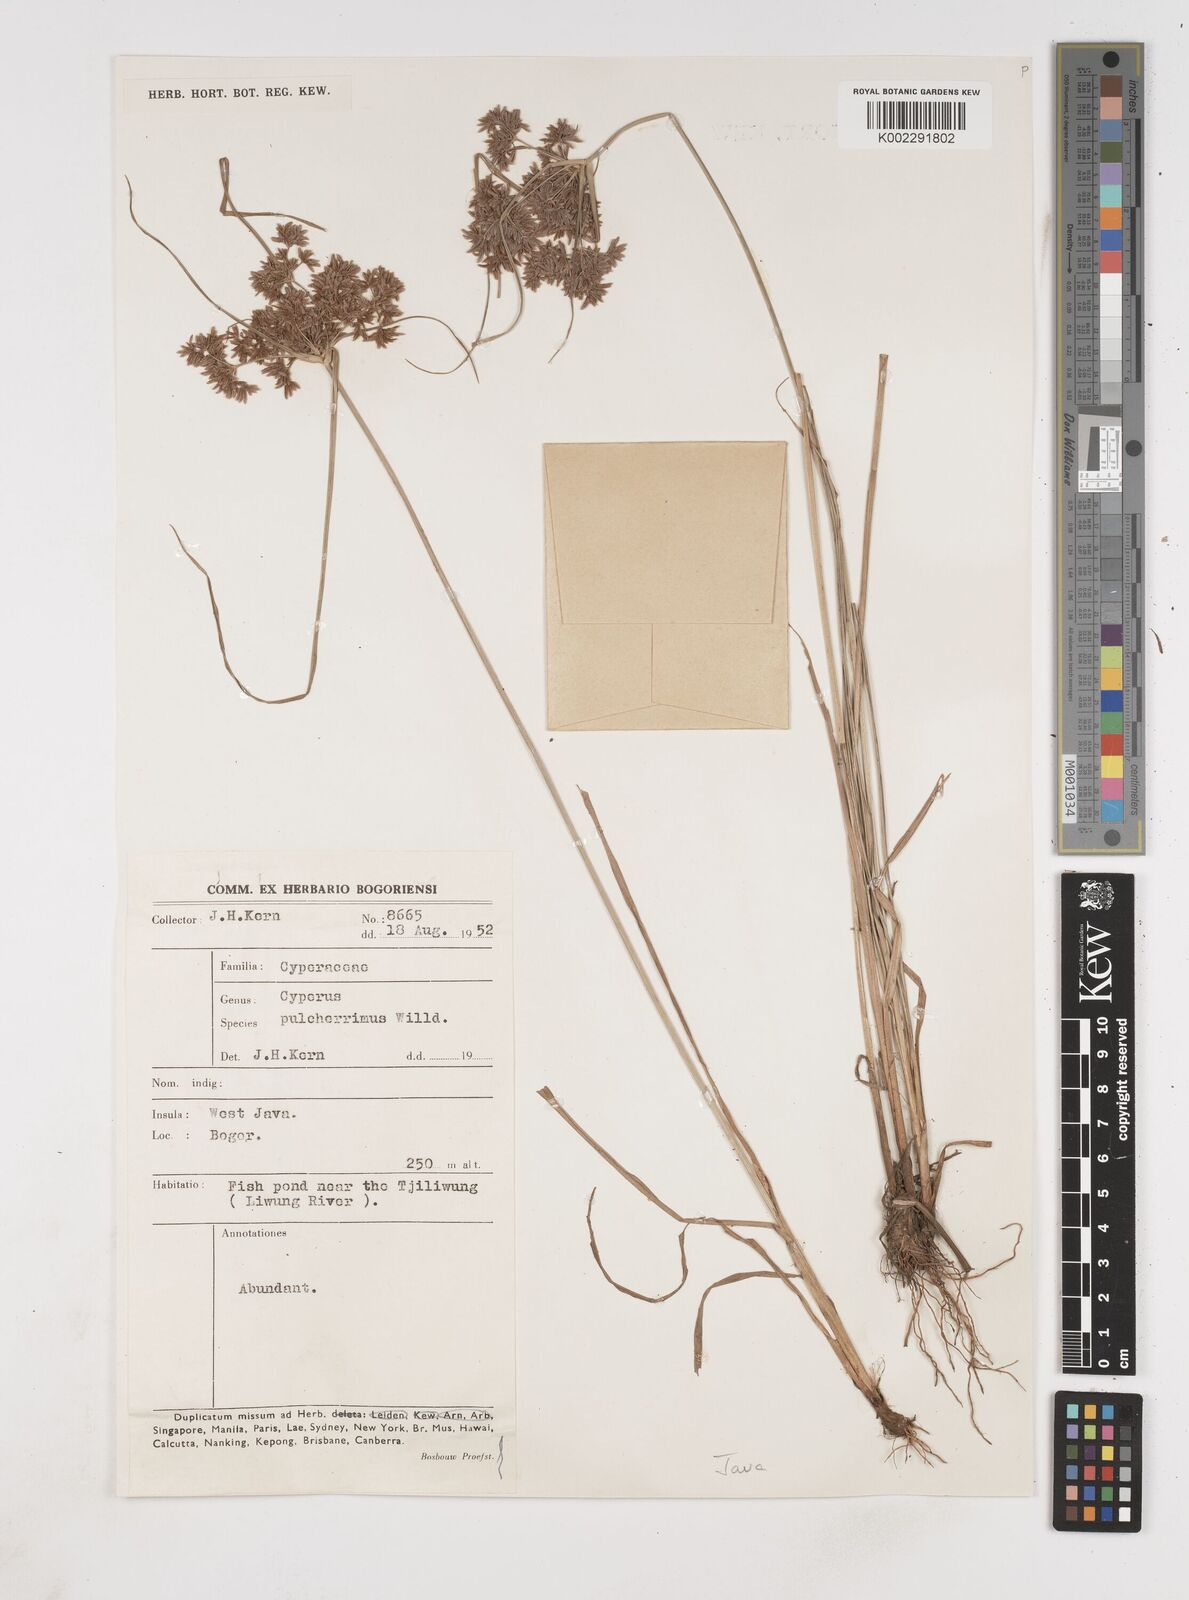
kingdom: Plantae
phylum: Tracheophyta
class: Liliopsida
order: Poales
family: Cyperaceae
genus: Cyperus
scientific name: Cyperus pulcherrimus
